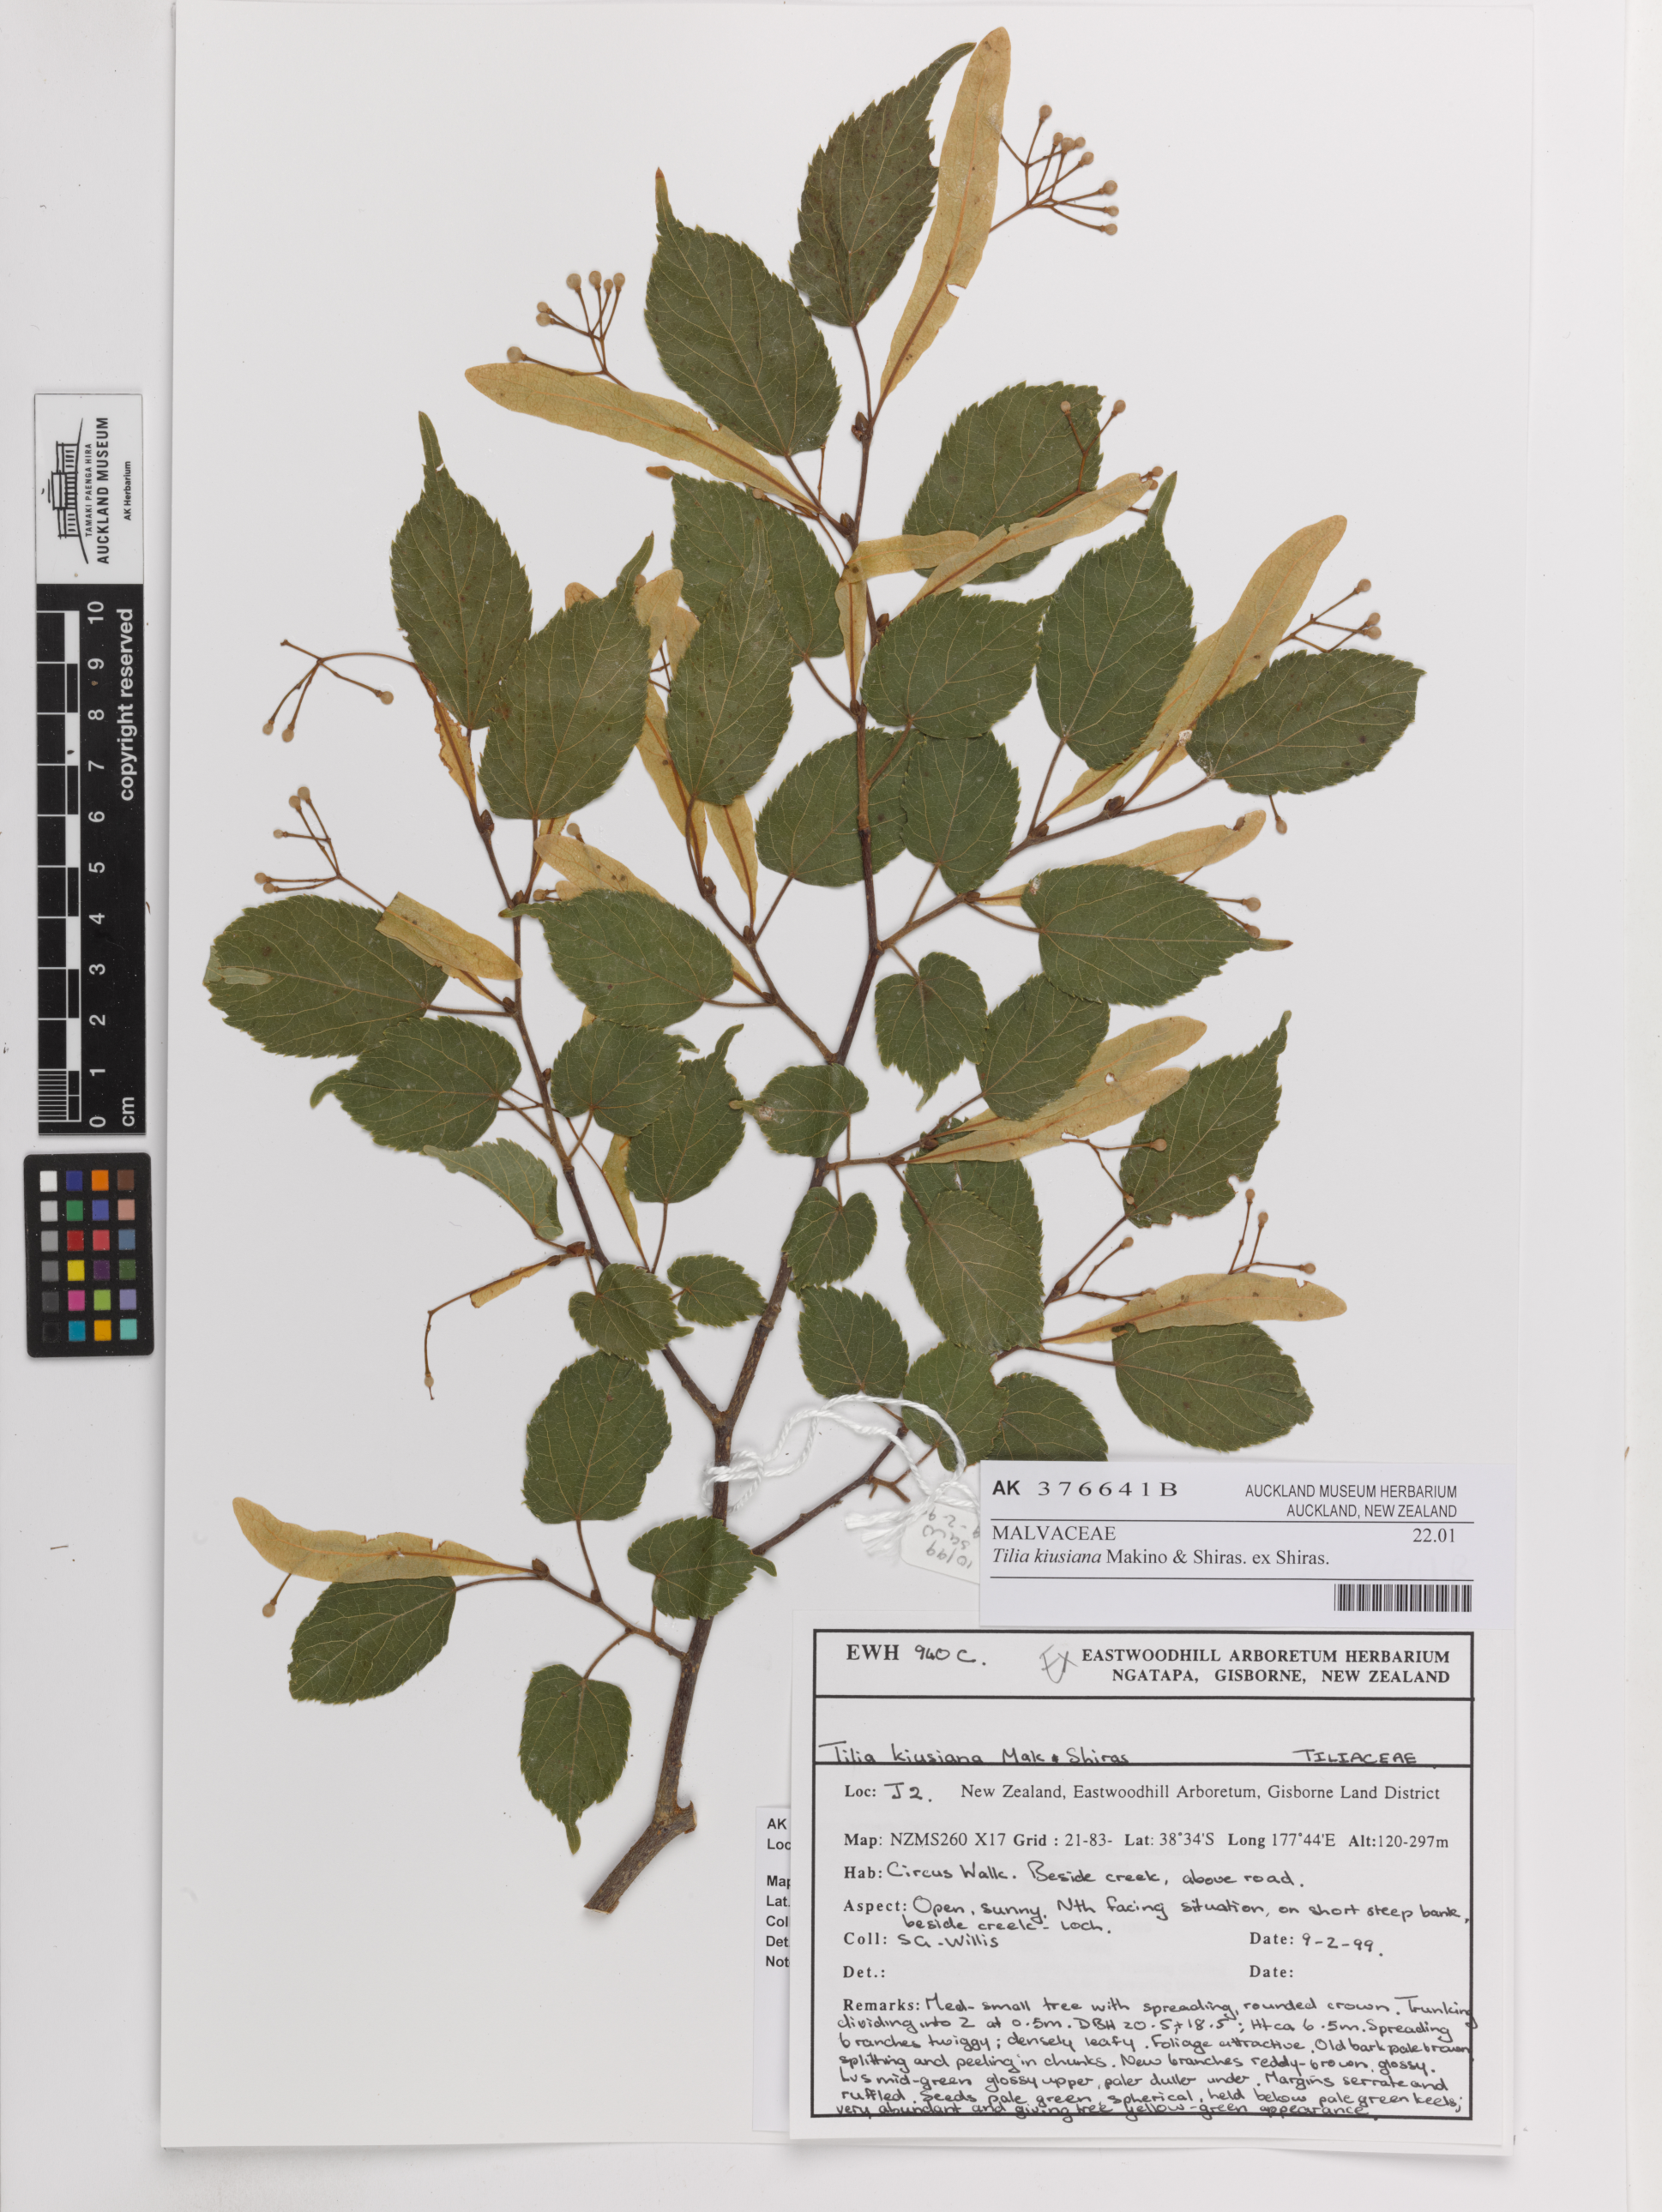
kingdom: Plantae
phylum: Tracheophyta
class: Magnoliopsida
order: Malvales
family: Malvaceae
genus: Tilia
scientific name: Tilia kiusiana
